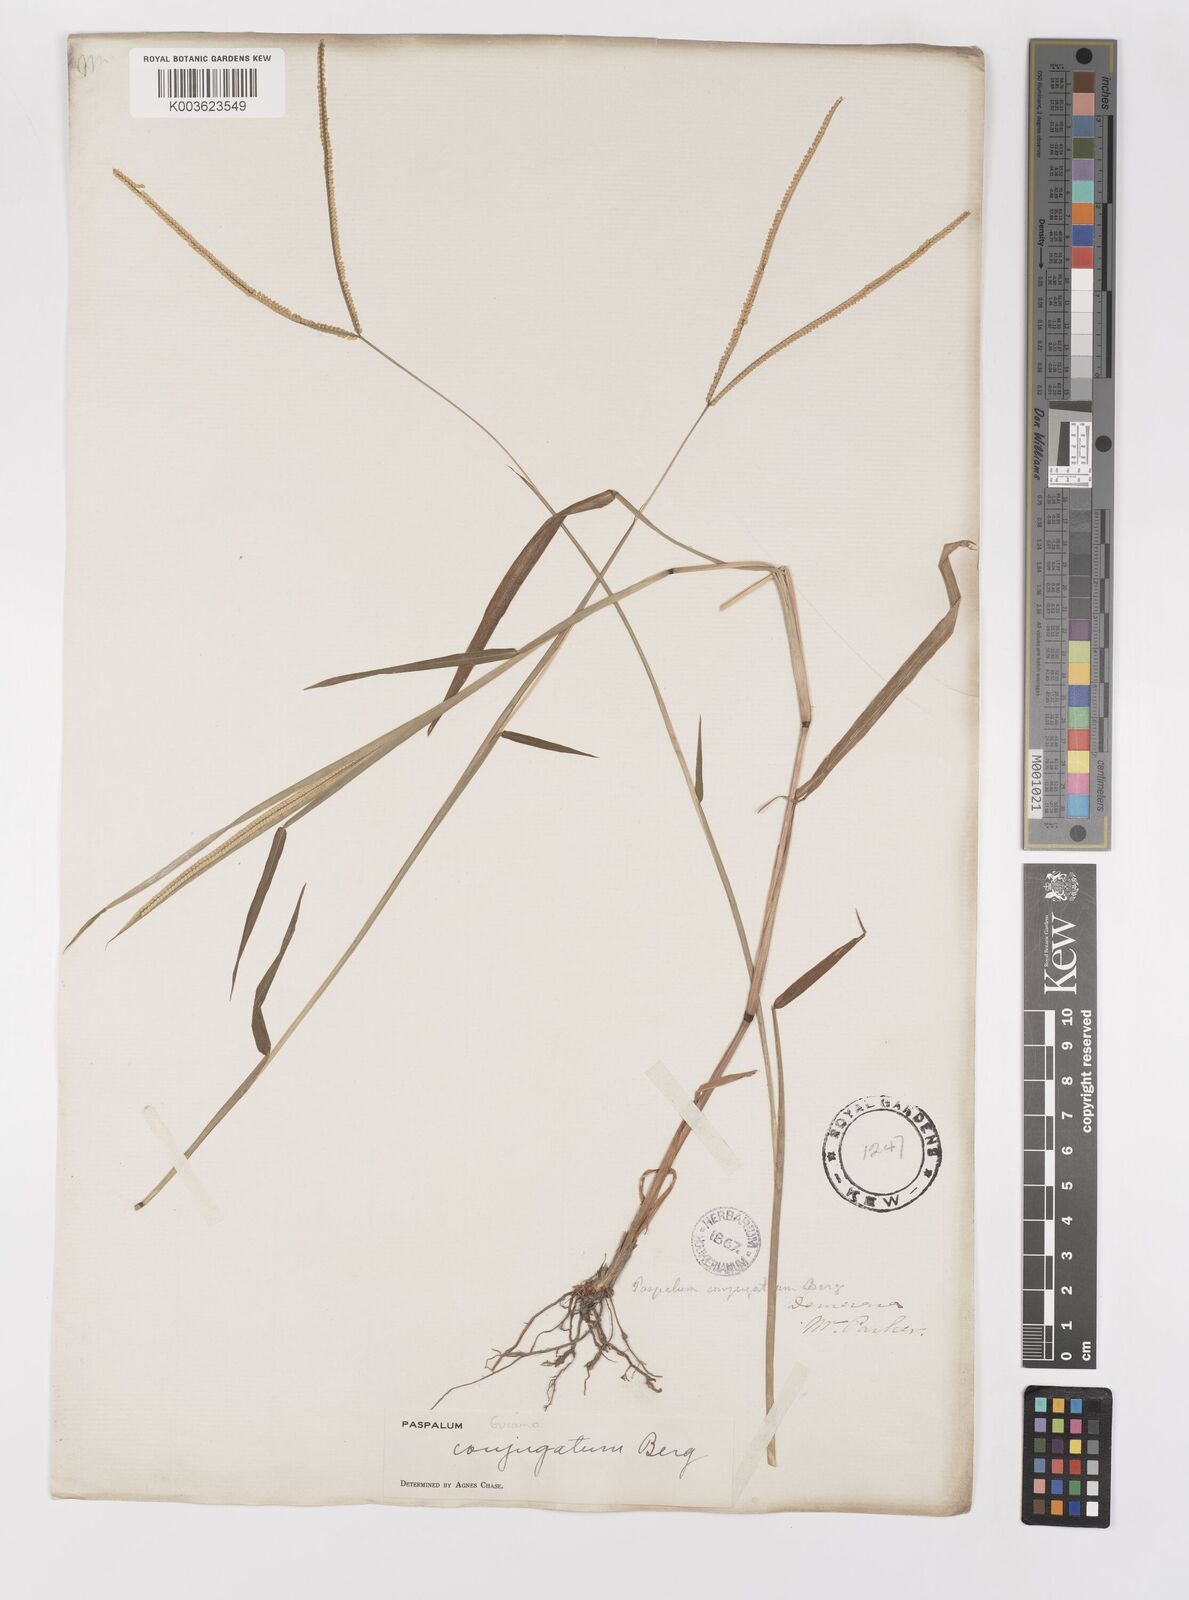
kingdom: Plantae
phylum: Tracheophyta
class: Liliopsida
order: Poales
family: Poaceae
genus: Paspalum
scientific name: Paspalum conjugatum
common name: Hilograss
